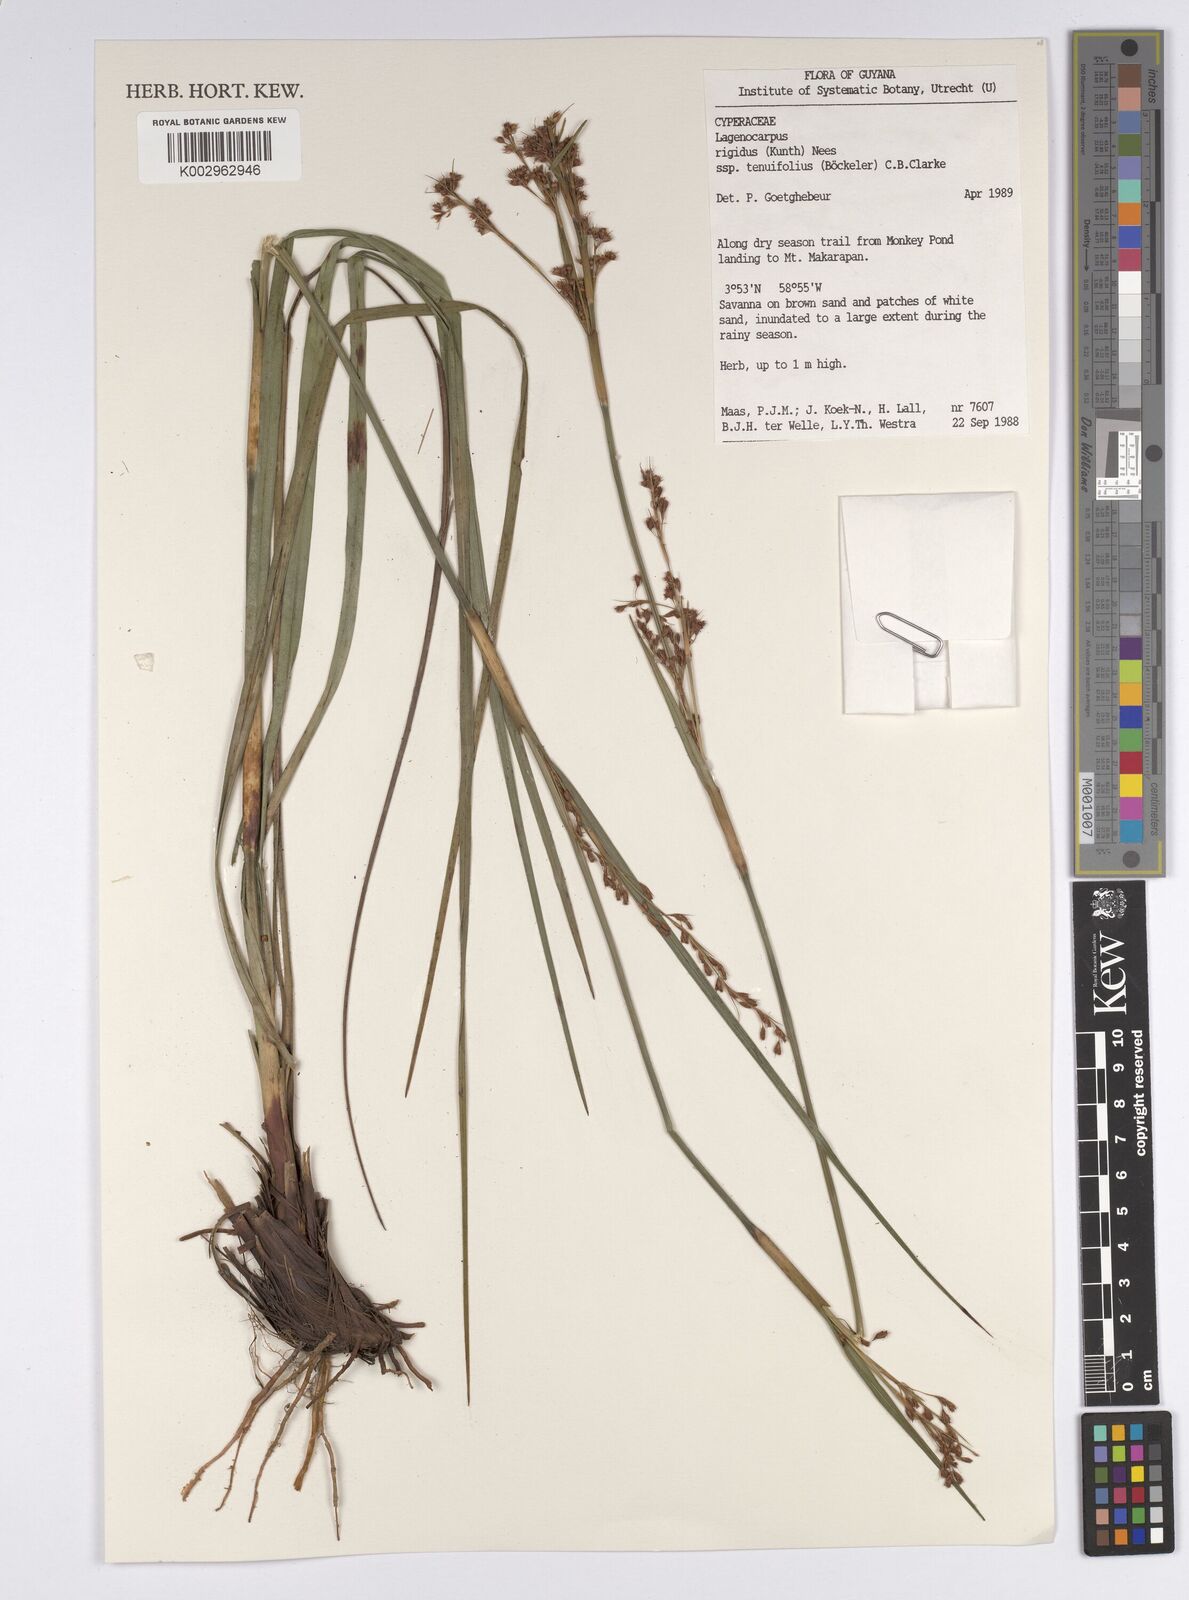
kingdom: Plantae
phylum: Tracheophyta
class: Liliopsida
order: Poales
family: Cyperaceae
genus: Lagenocarpus
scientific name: Lagenocarpus rigidus
